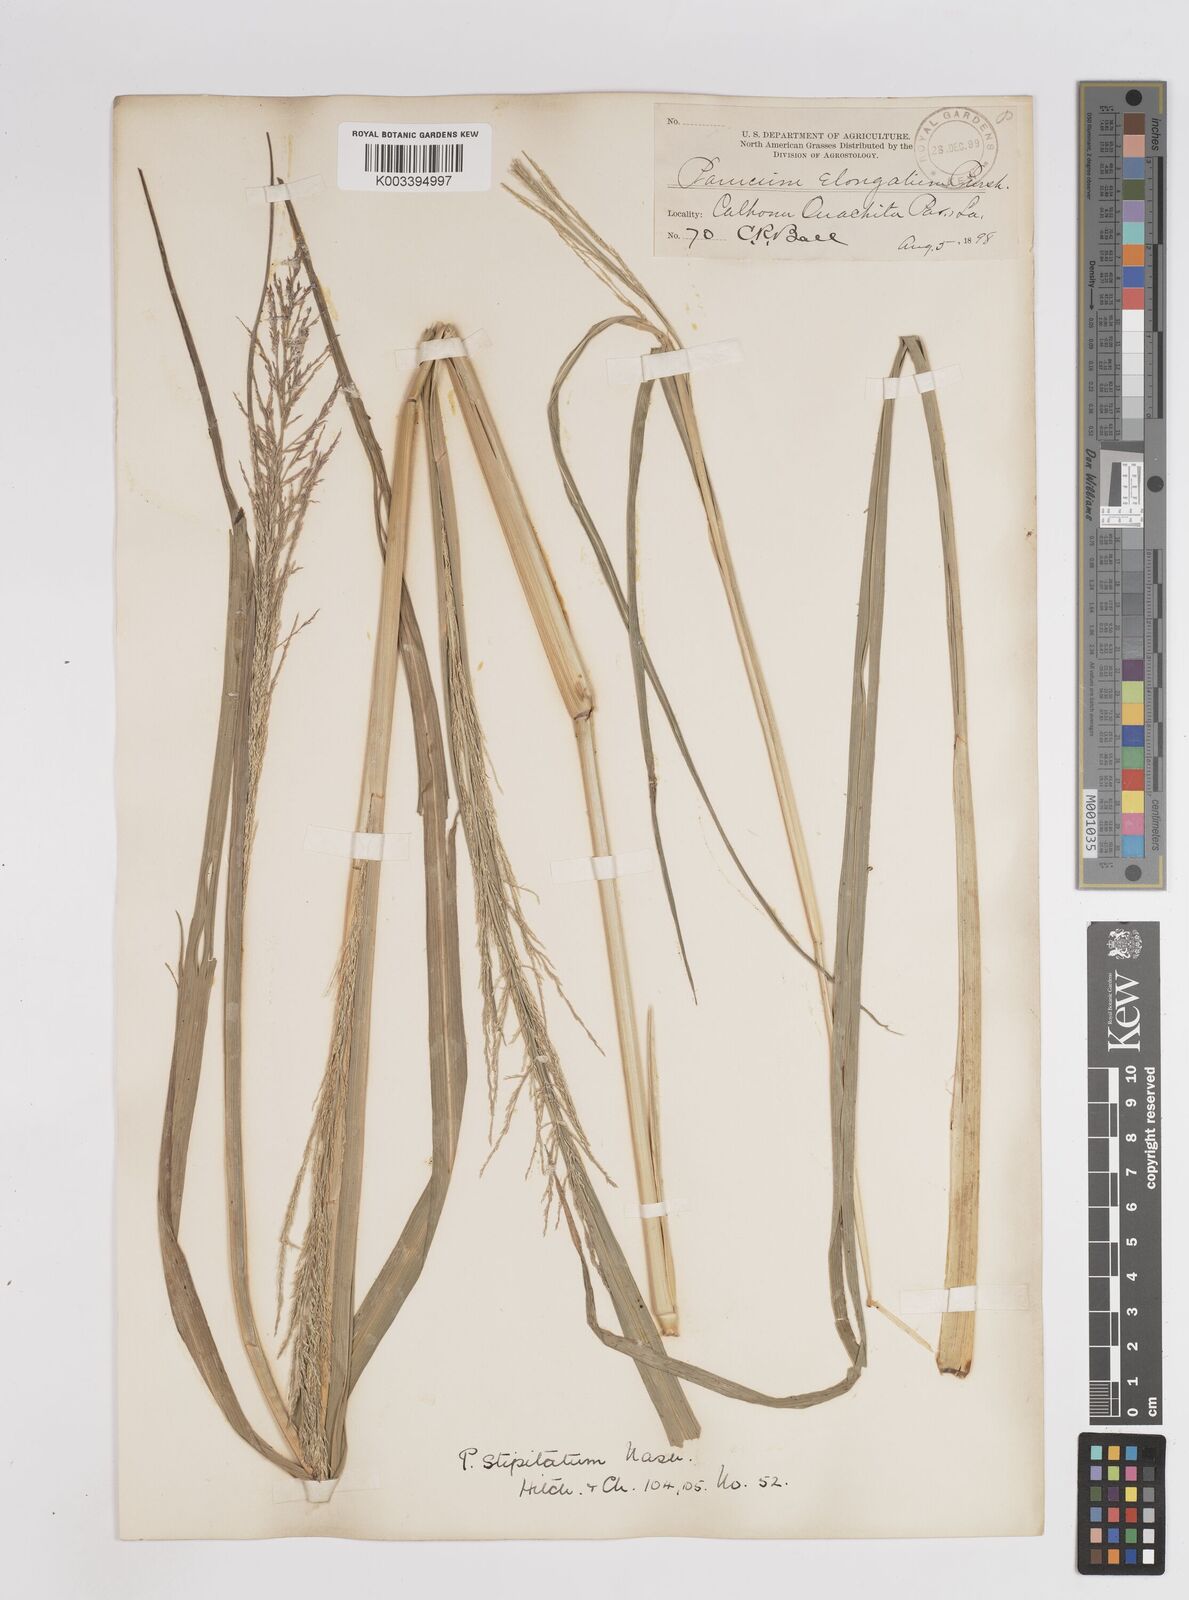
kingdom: Plantae
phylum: Tracheophyta
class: Liliopsida
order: Poales
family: Poaceae
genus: Coleataenia
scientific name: Coleataenia pulchra
